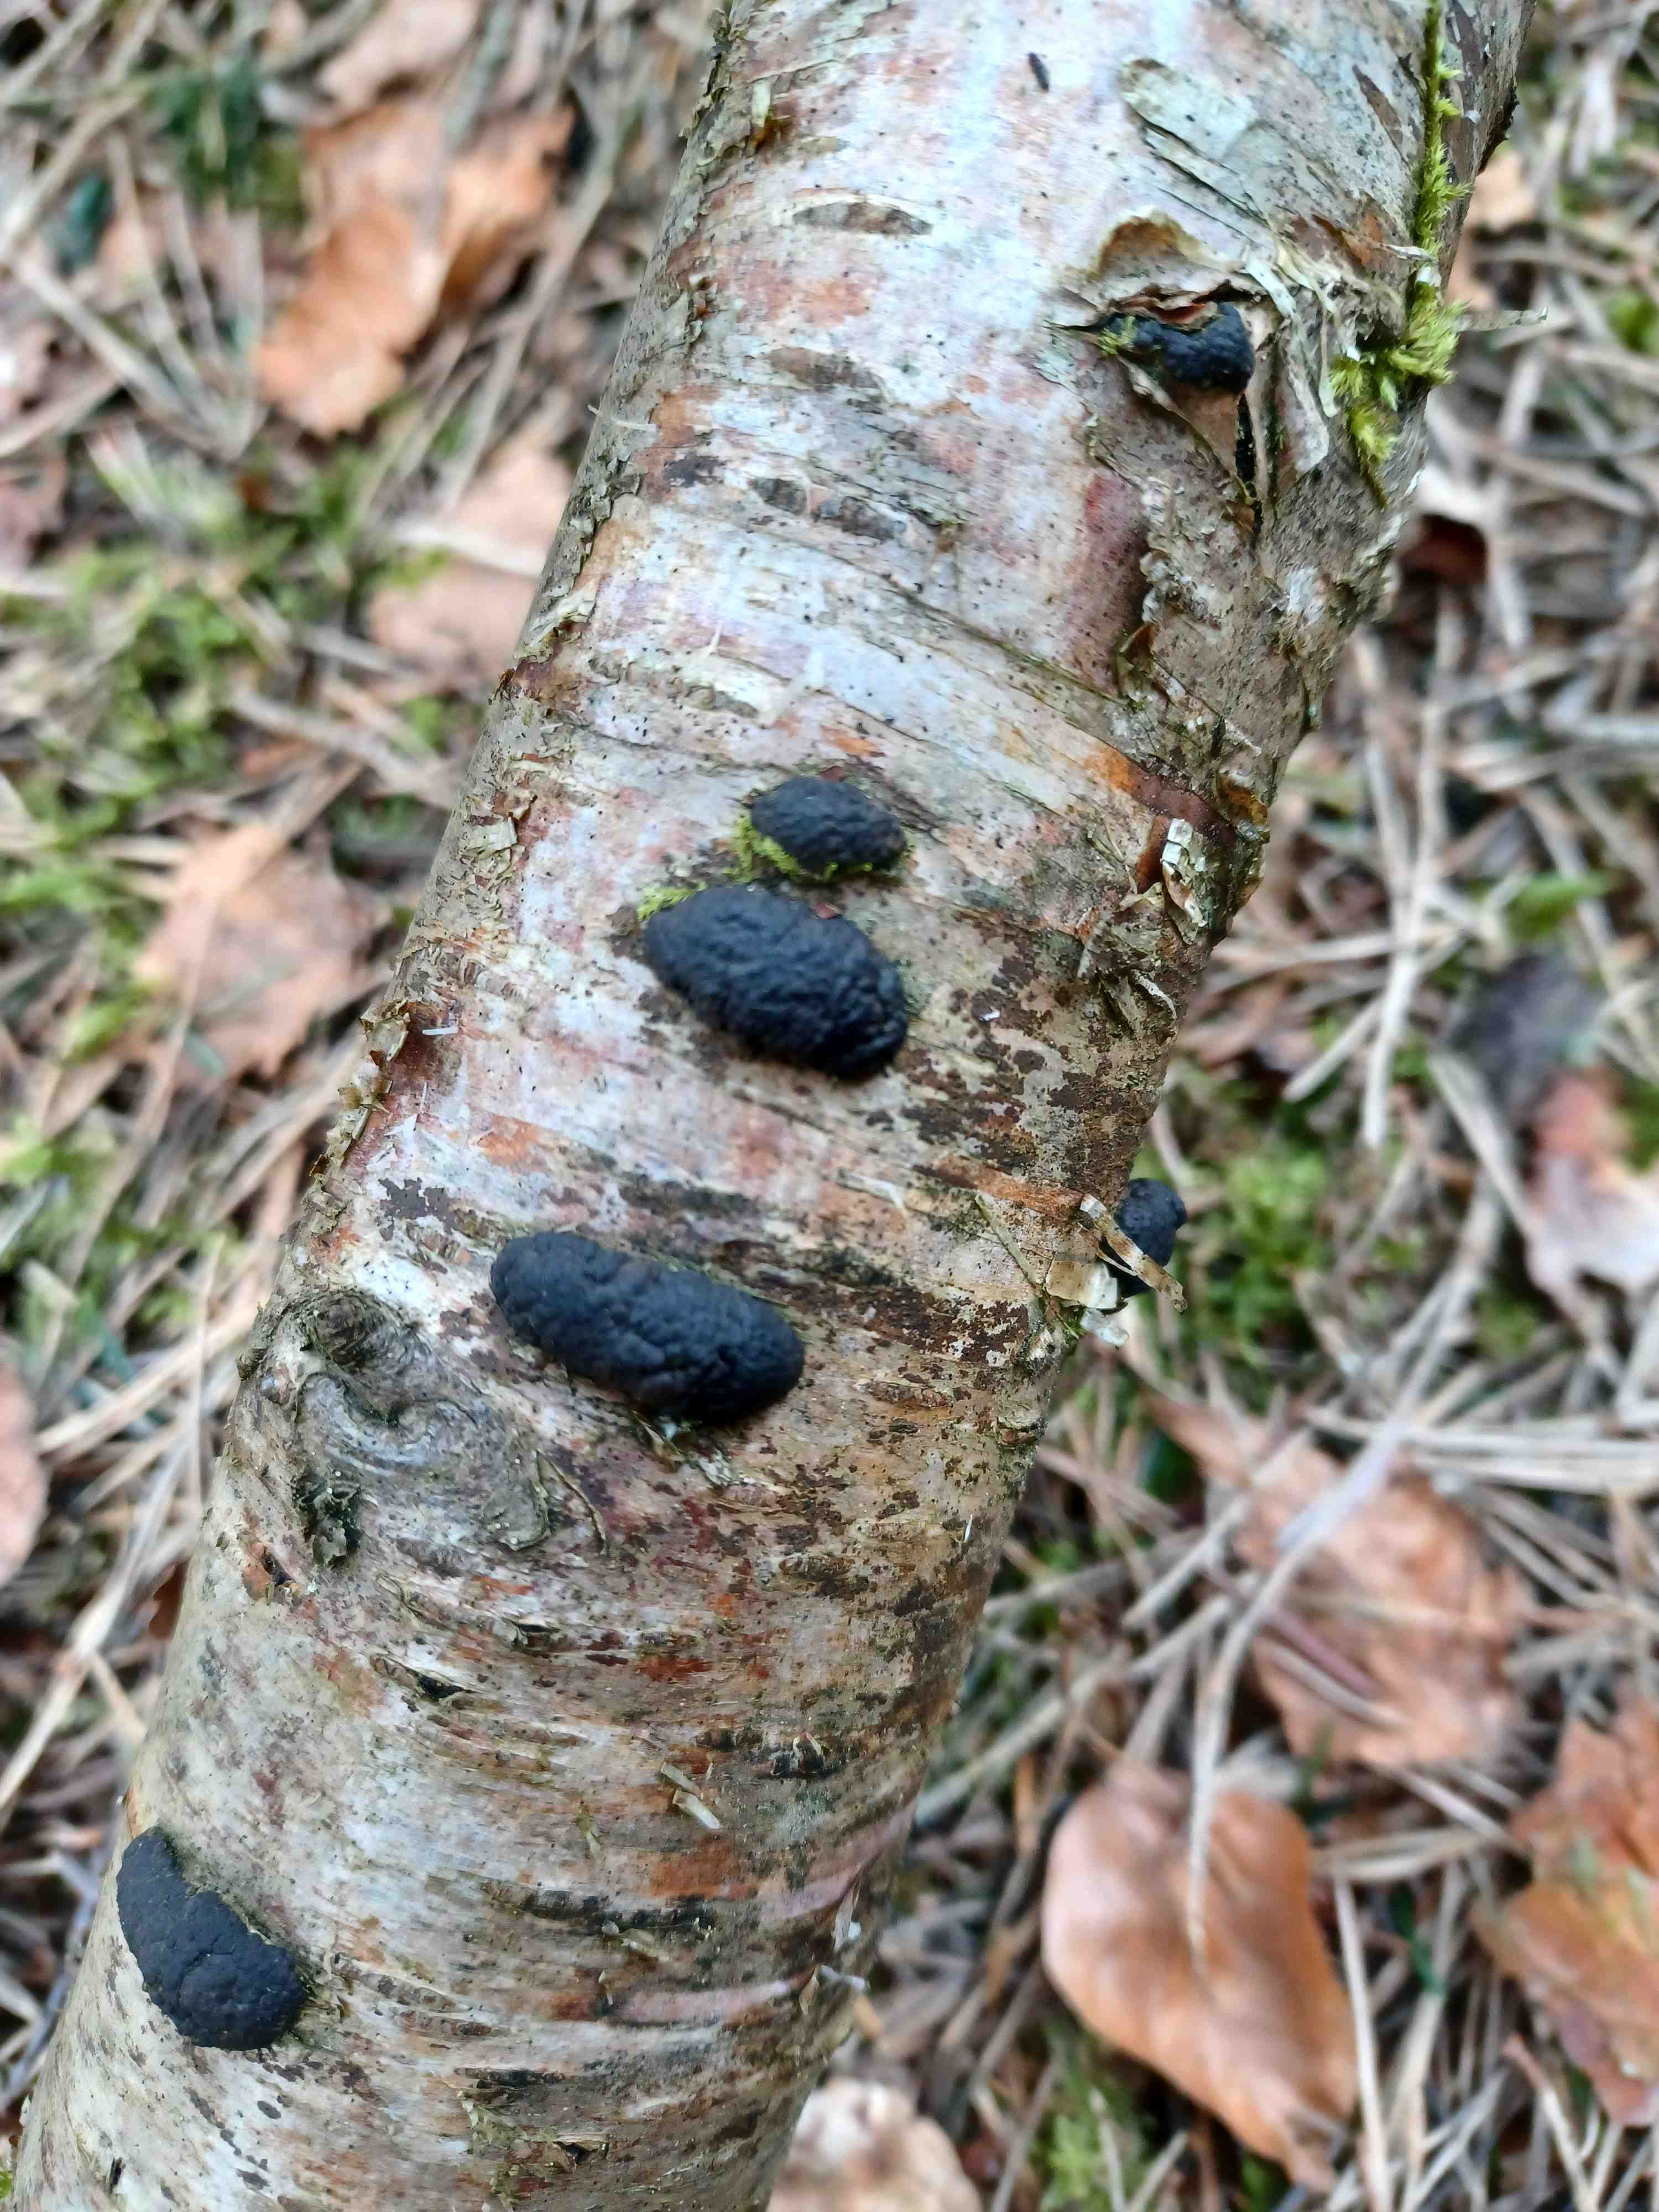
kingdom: Fungi
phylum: Ascomycota
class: Sordariomycetes
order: Xylariales
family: Hypoxylaceae
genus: Jackrogersella
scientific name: Jackrogersella multiformis
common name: foranderlig kulbær
